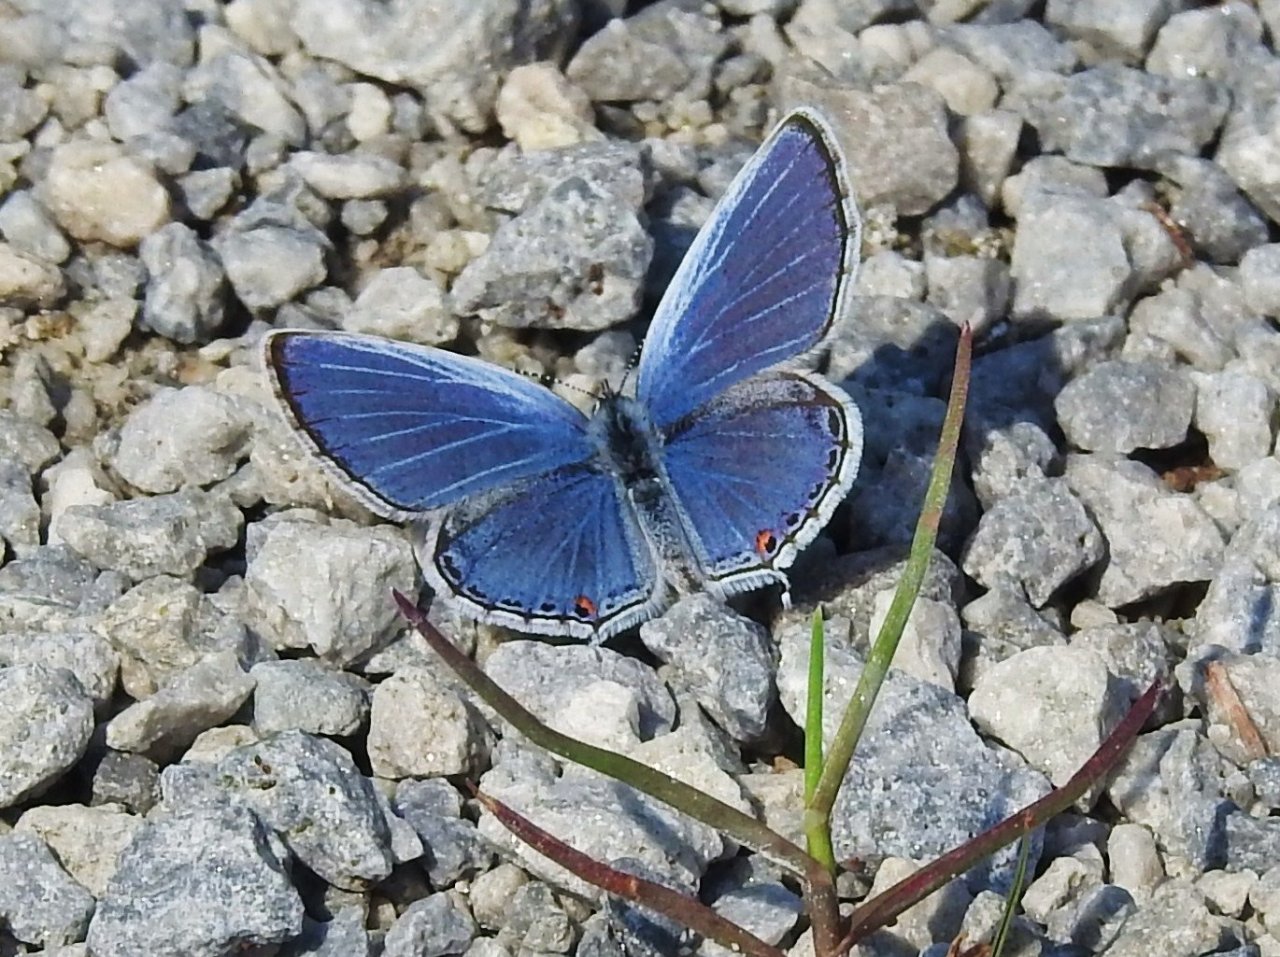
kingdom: Animalia
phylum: Arthropoda
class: Insecta
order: Lepidoptera
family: Lycaenidae
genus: Elkalyce
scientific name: Elkalyce comyntas
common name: Eastern Tailed-Blue
